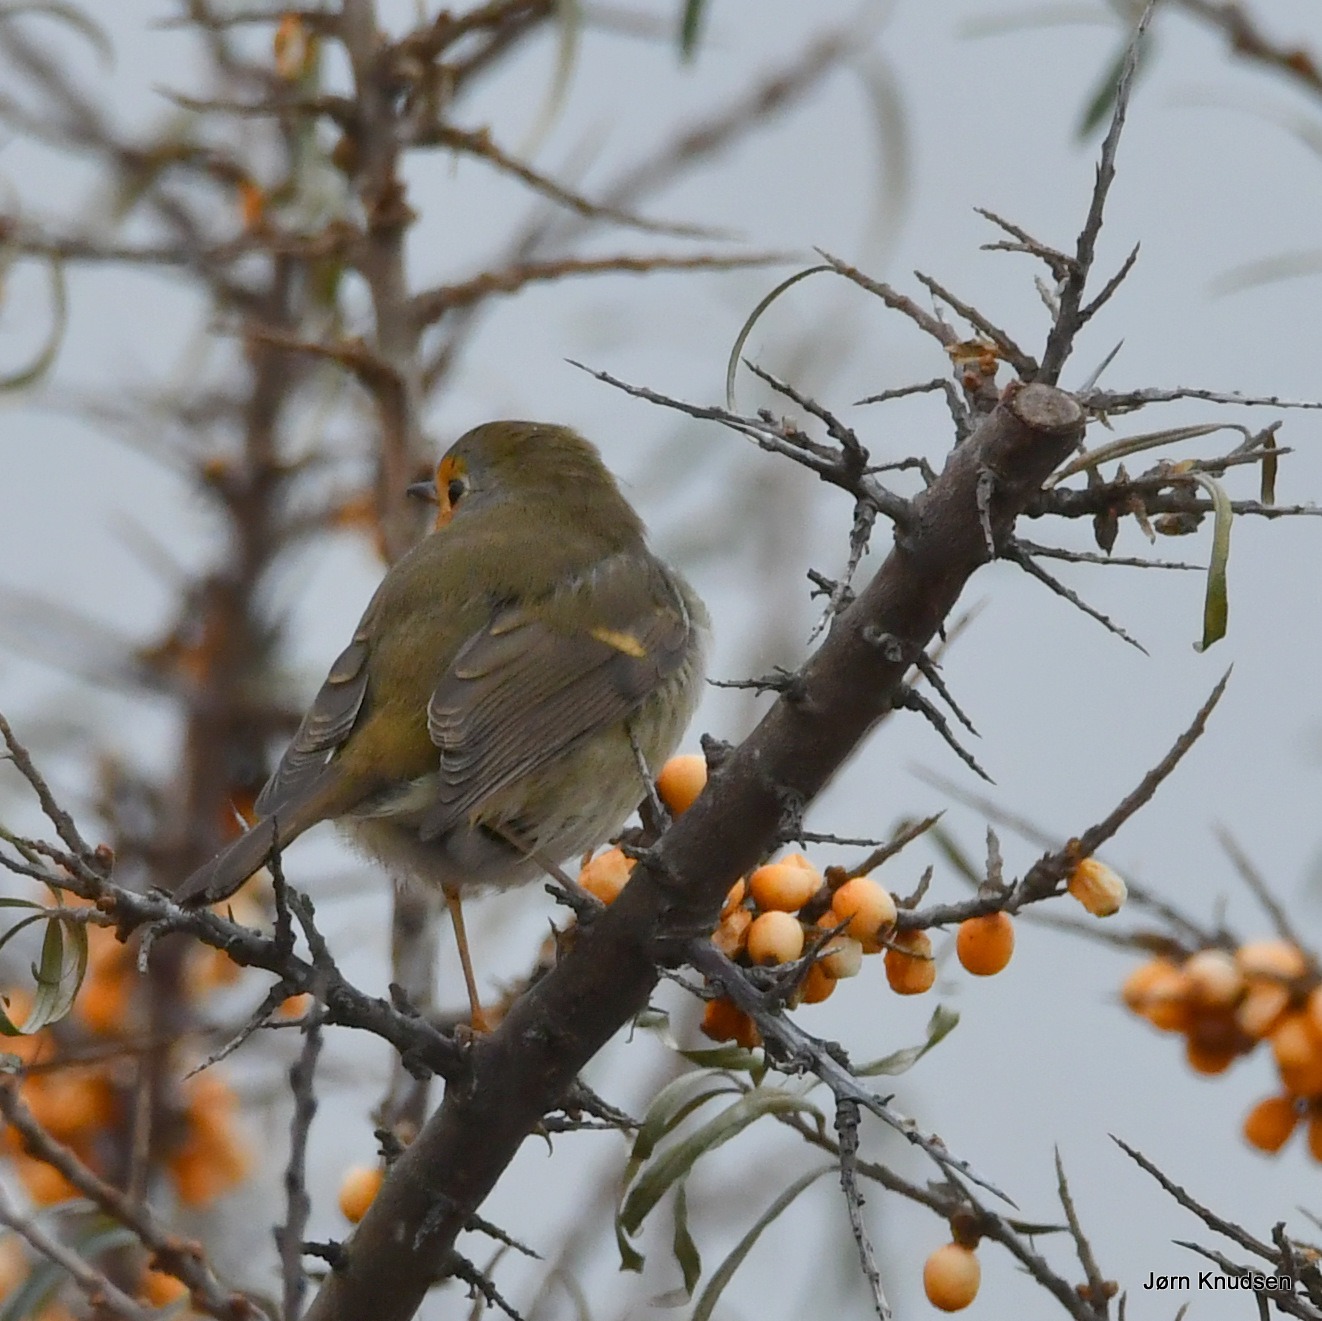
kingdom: Animalia
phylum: Chordata
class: Aves
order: Passeriformes
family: Muscicapidae
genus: Erithacus
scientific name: Erithacus rubecula
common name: Rødhals/rødkælk
